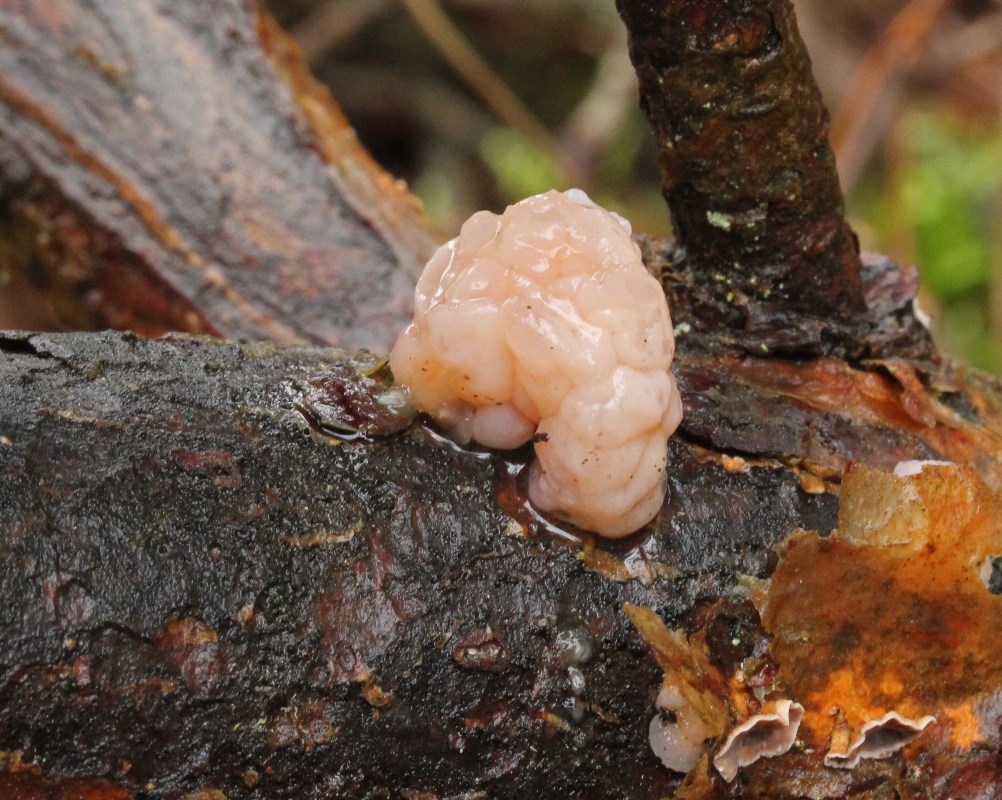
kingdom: Fungi
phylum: Basidiomycota
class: Tremellomycetes
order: Tremellales
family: Naemateliaceae
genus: Naematelia
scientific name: Naematelia encephala
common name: fyrre-bævresvamp
